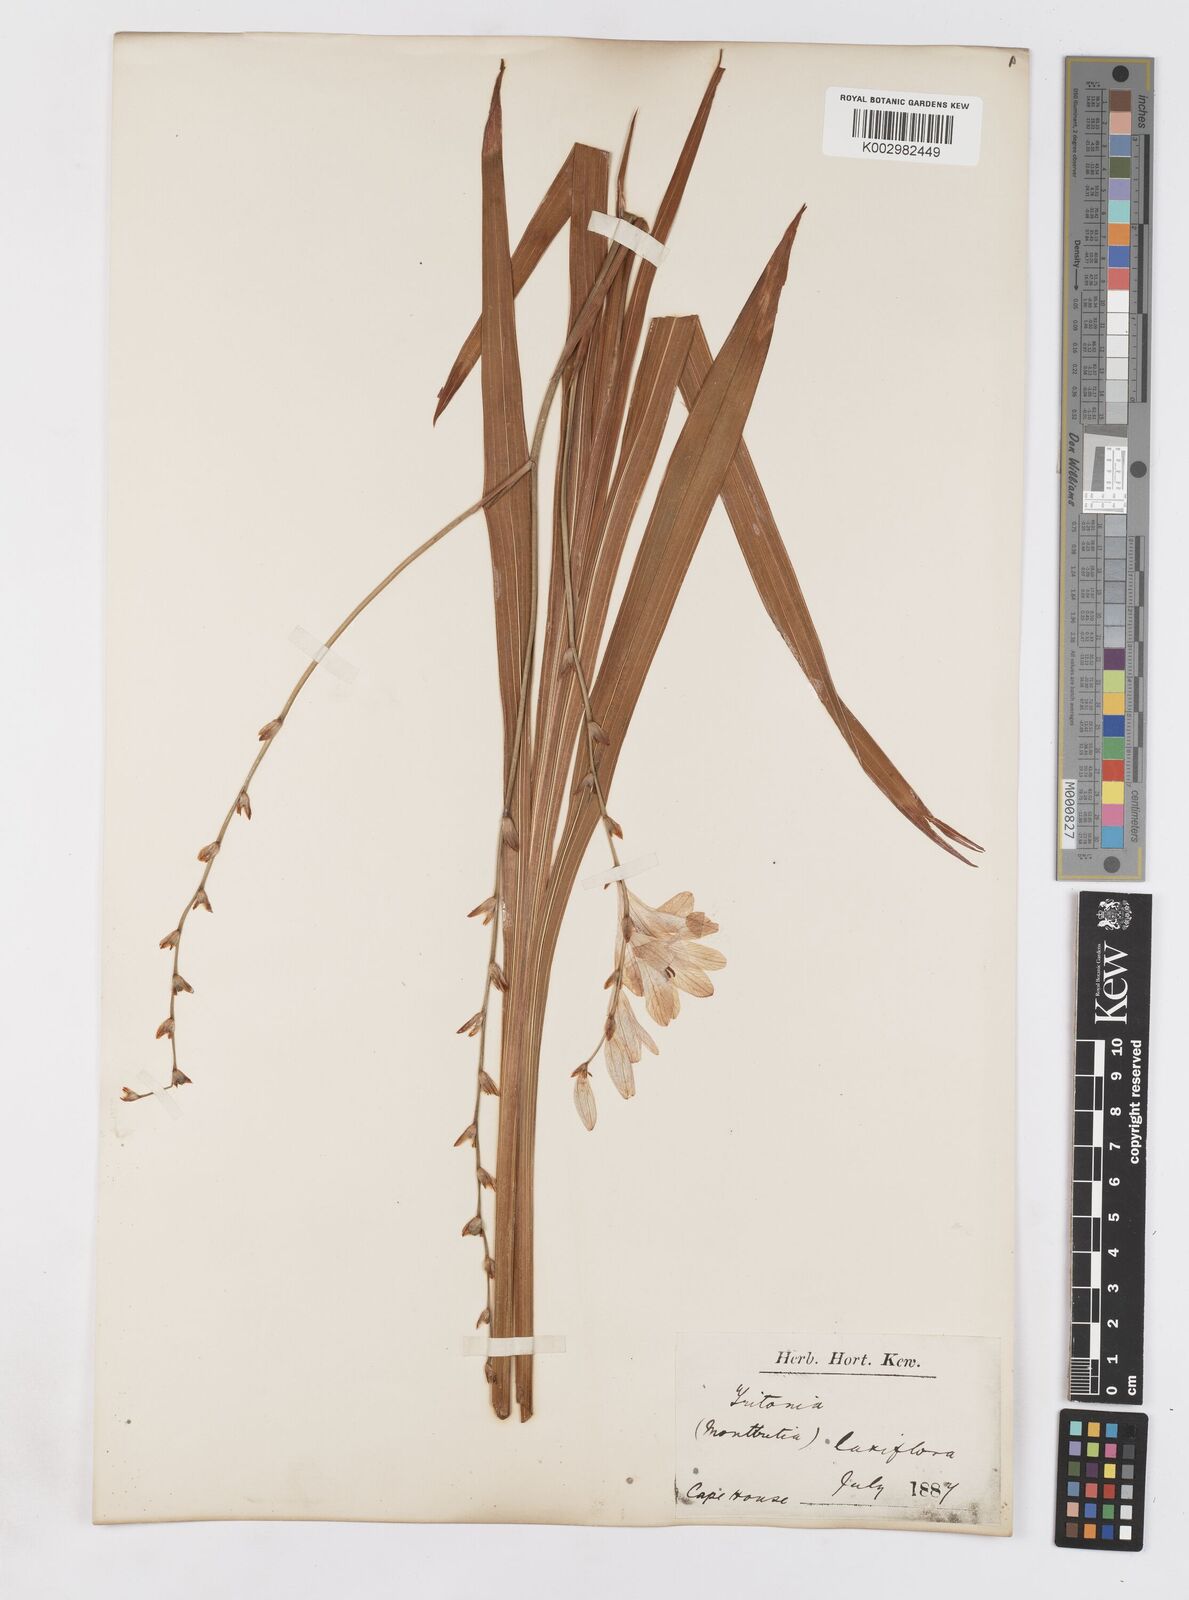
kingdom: Plantae
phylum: Tracheophyta
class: Liliopsida
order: Asparagales
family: Iridaceae
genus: Tritonia
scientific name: Tritonia laxifolia
